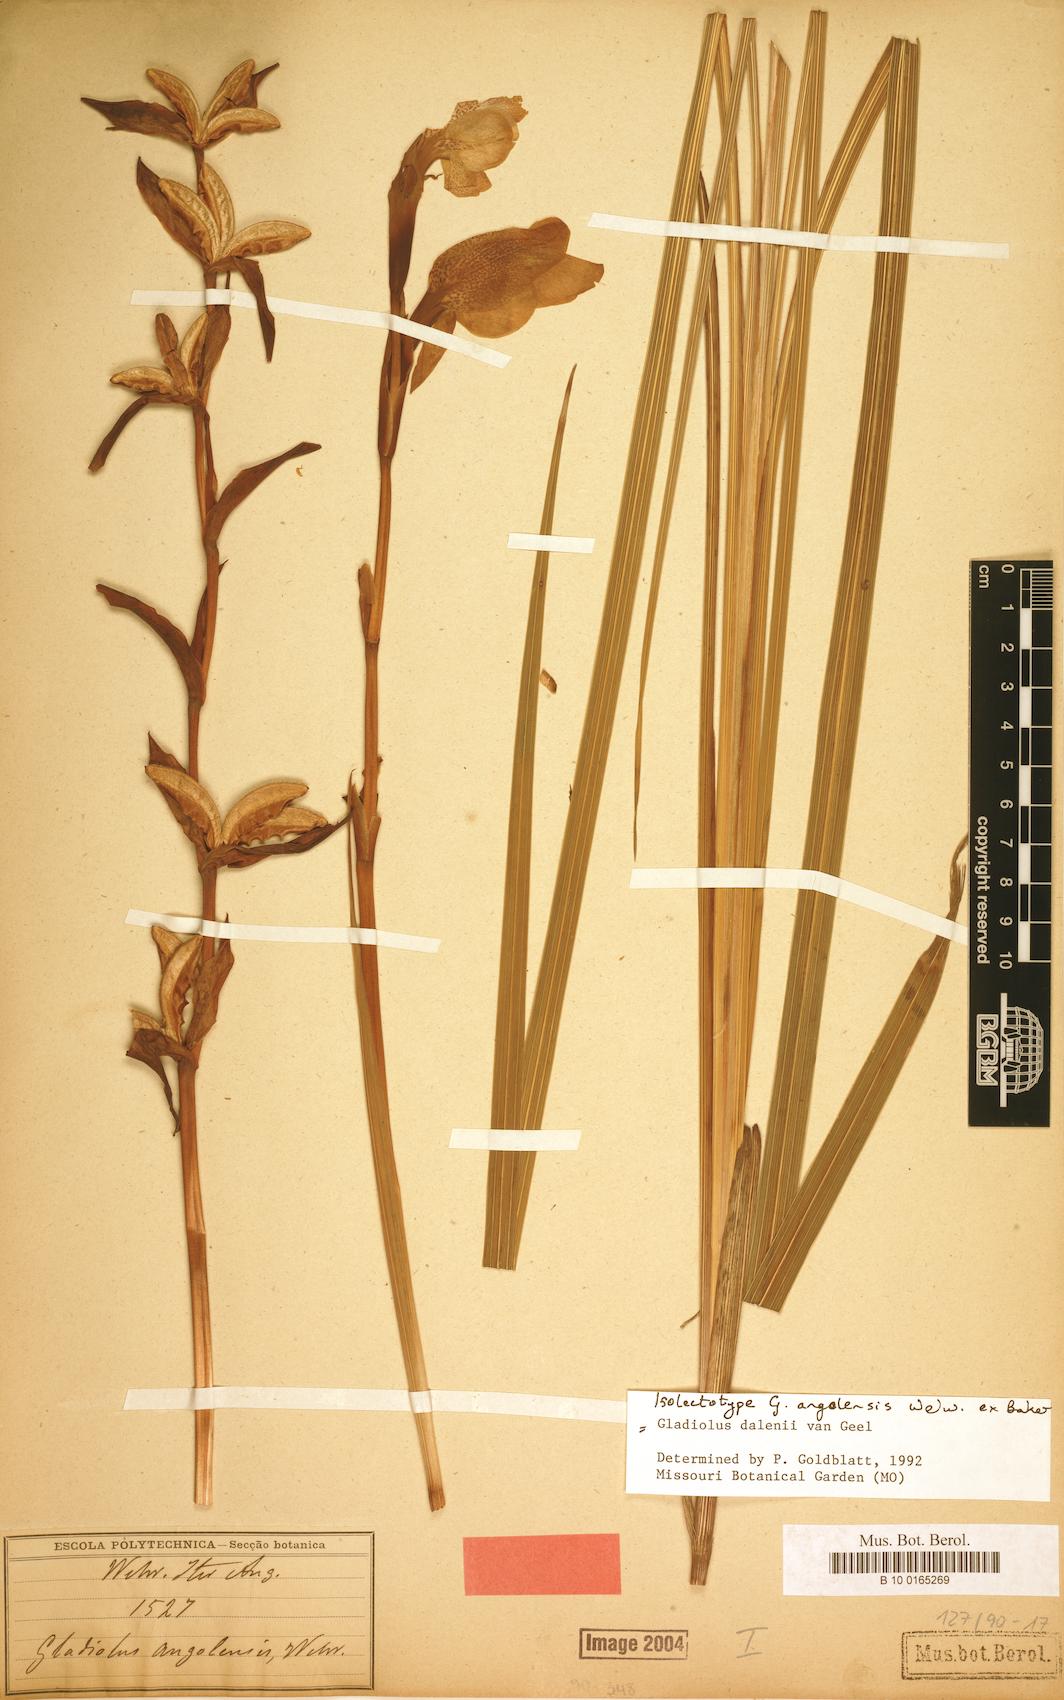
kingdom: Plantae
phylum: Tracheophyta
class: Liliopsida
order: Asparagales
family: Iridaceae
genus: Gladiolus
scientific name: Gladiolus dalenii
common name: Cornflag
